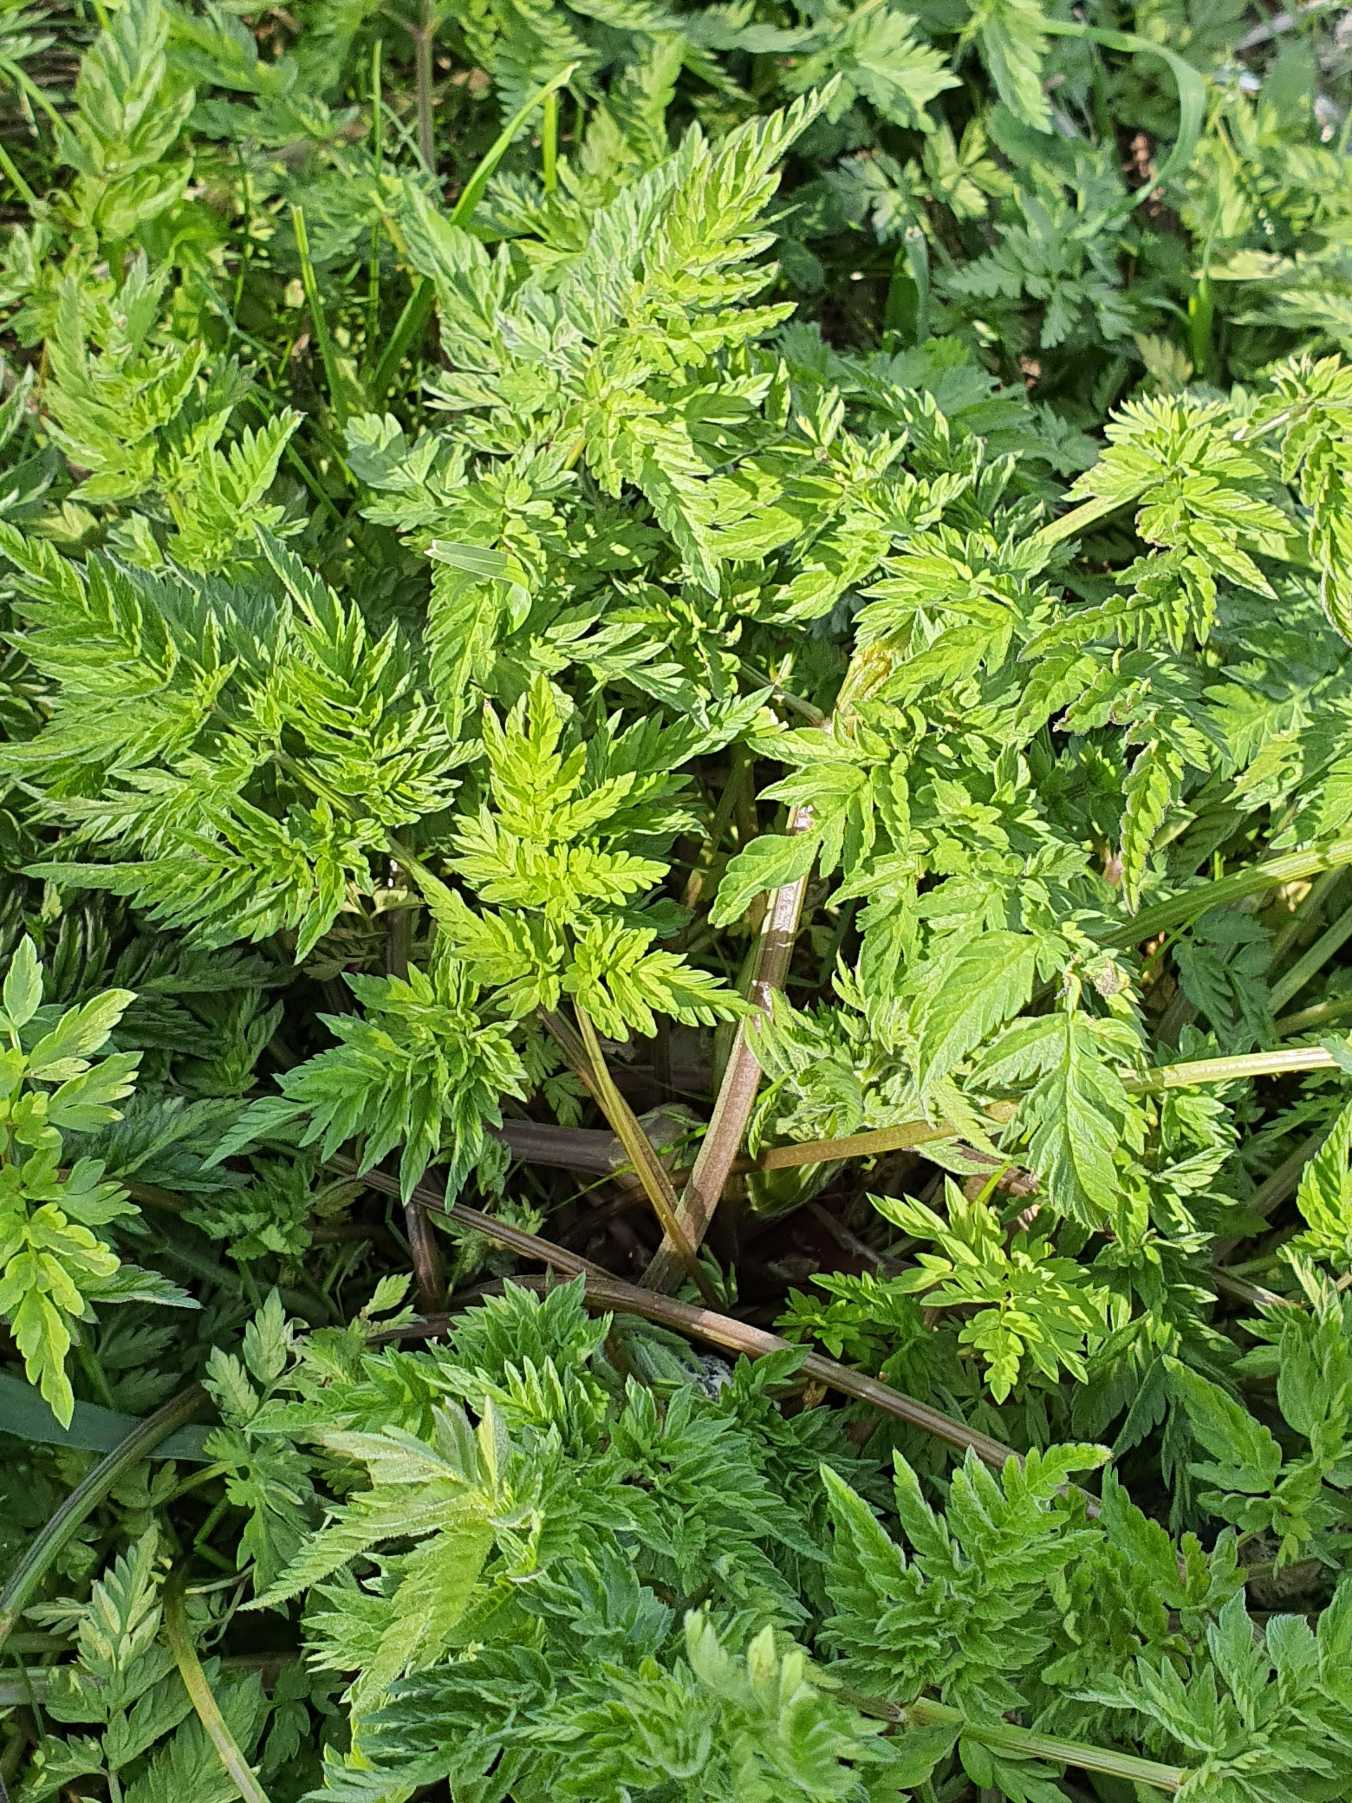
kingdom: Plantae
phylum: Tracheophyta
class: Magnoliopsida
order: Apiales
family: Apiaceae
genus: Anthriscus
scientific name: Anthriscus sylvestris
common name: Vild kørvel
